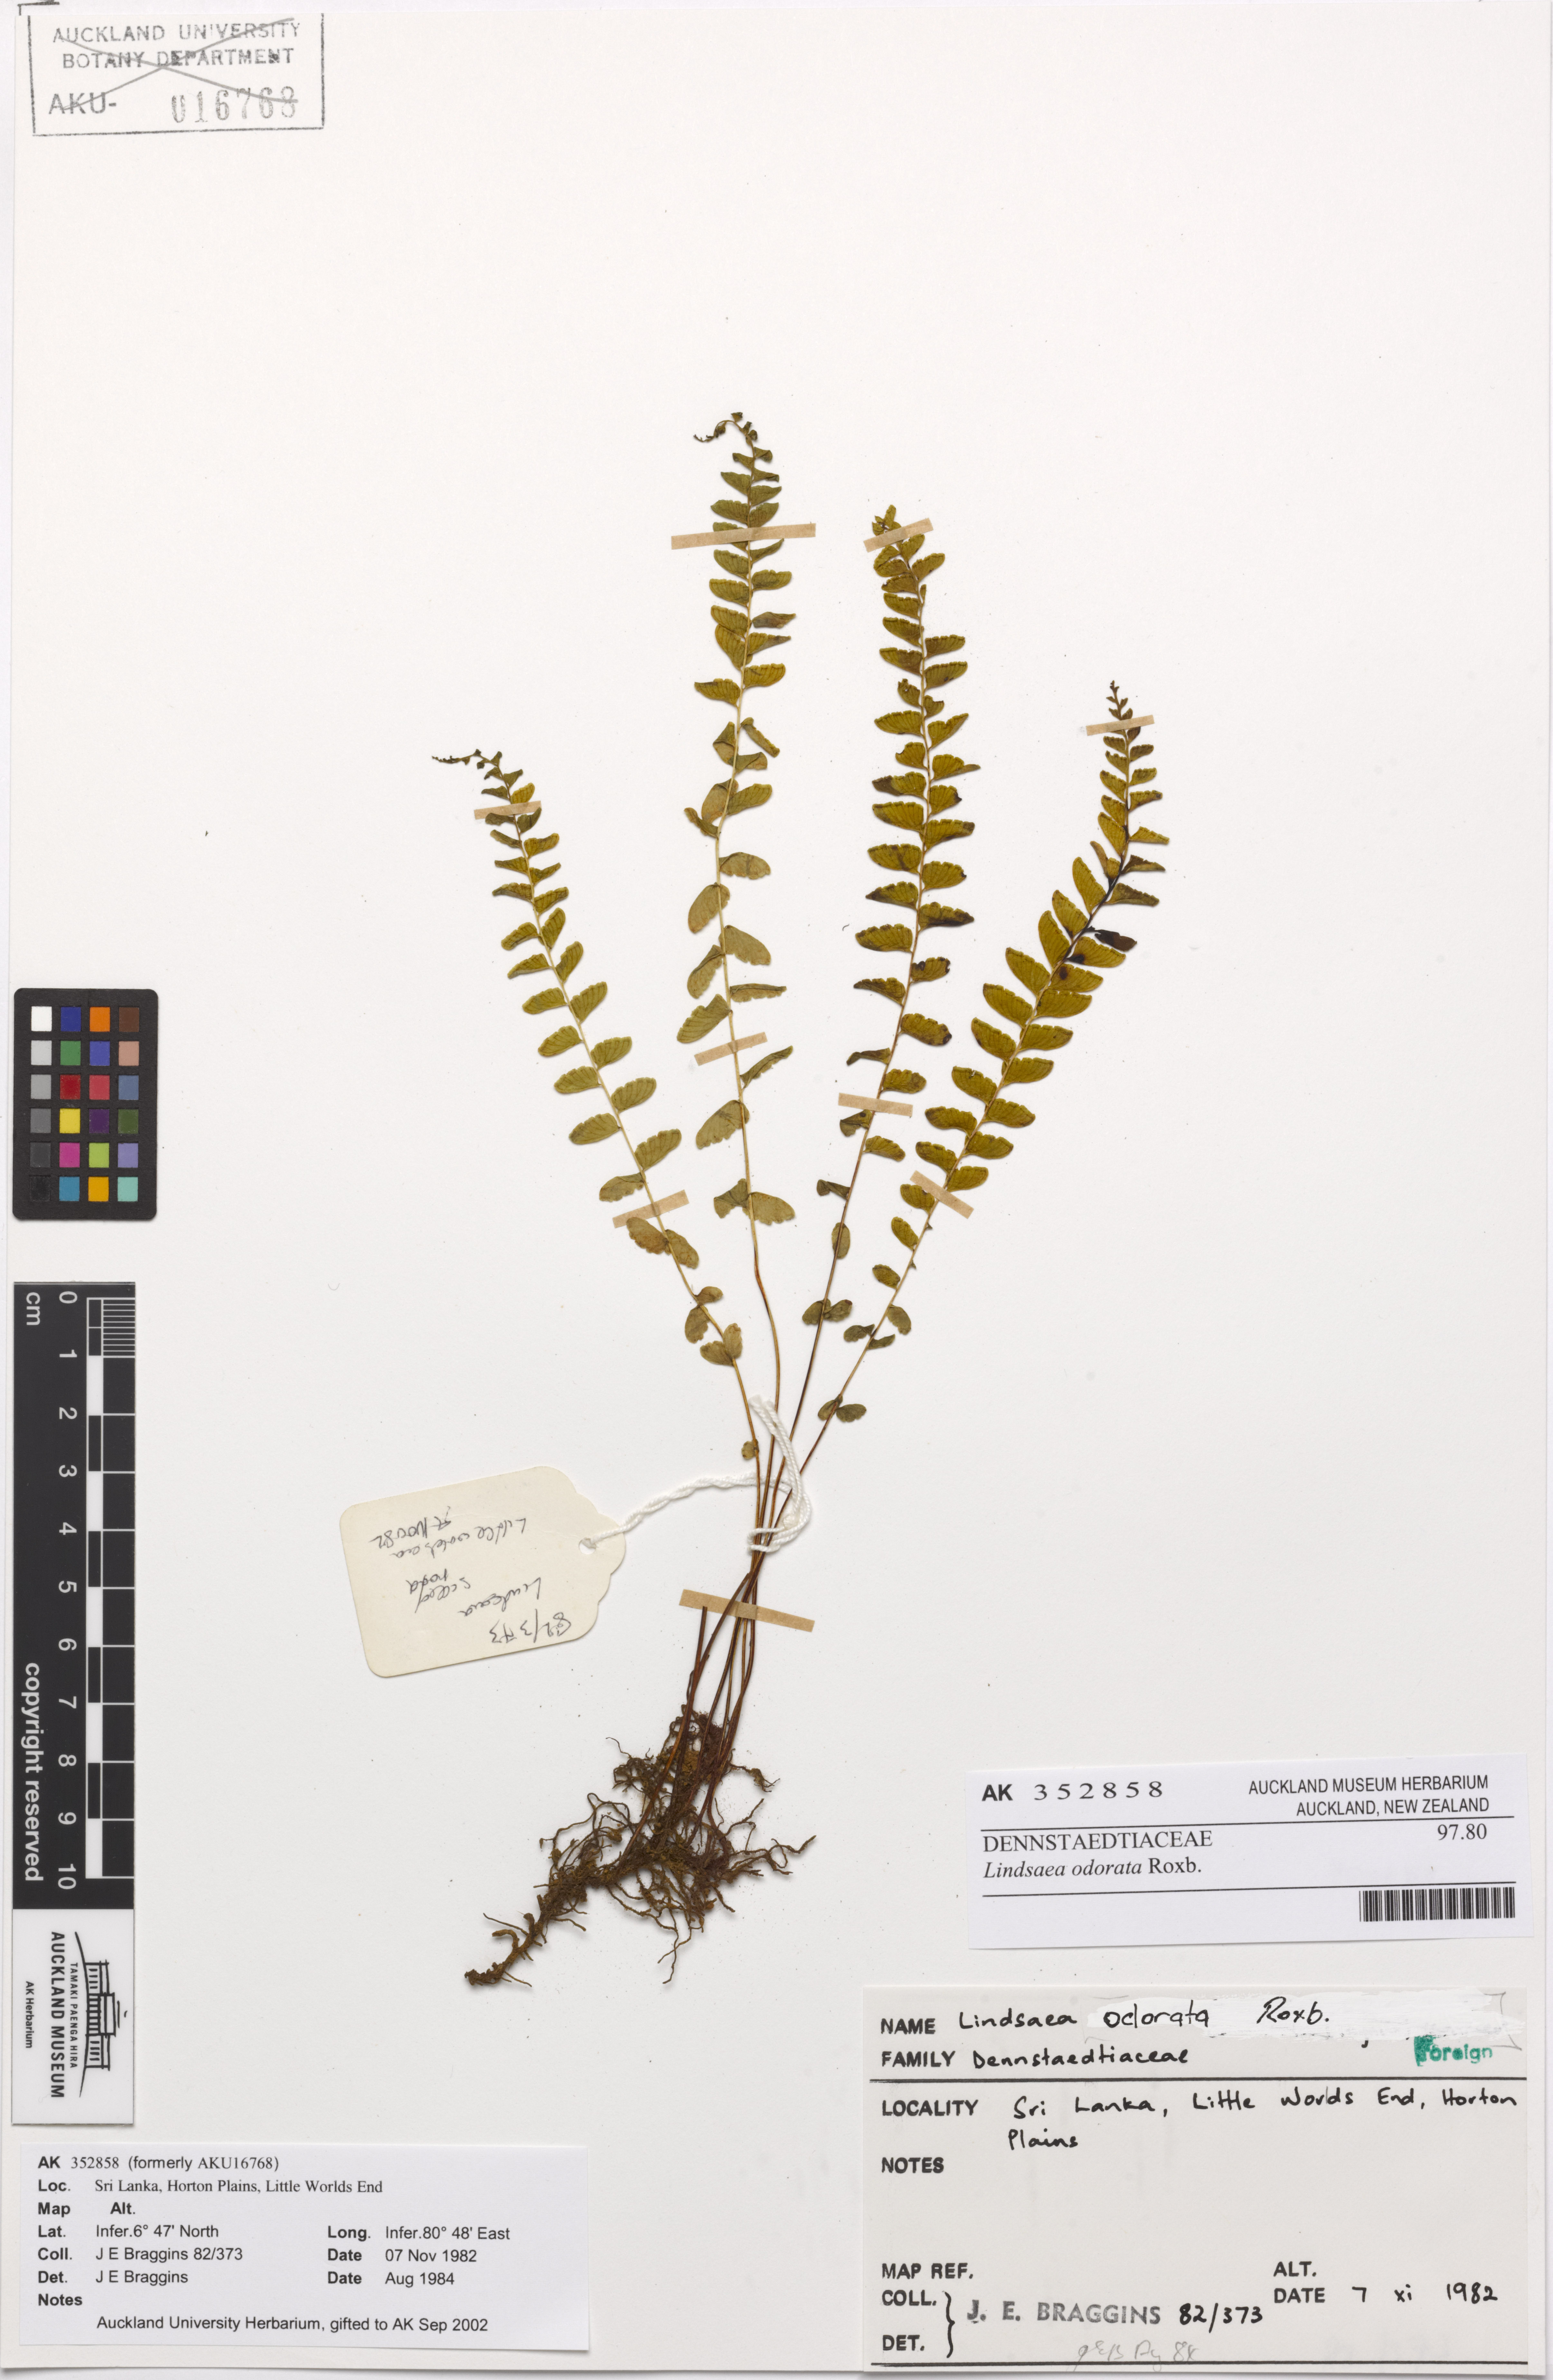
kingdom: Plantae
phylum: Tracheophyta
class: Polypodiopsida
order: Polypodiales
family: Lindsaeaceae
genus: Osmolindsaea
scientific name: Osmolindsaea odorata
